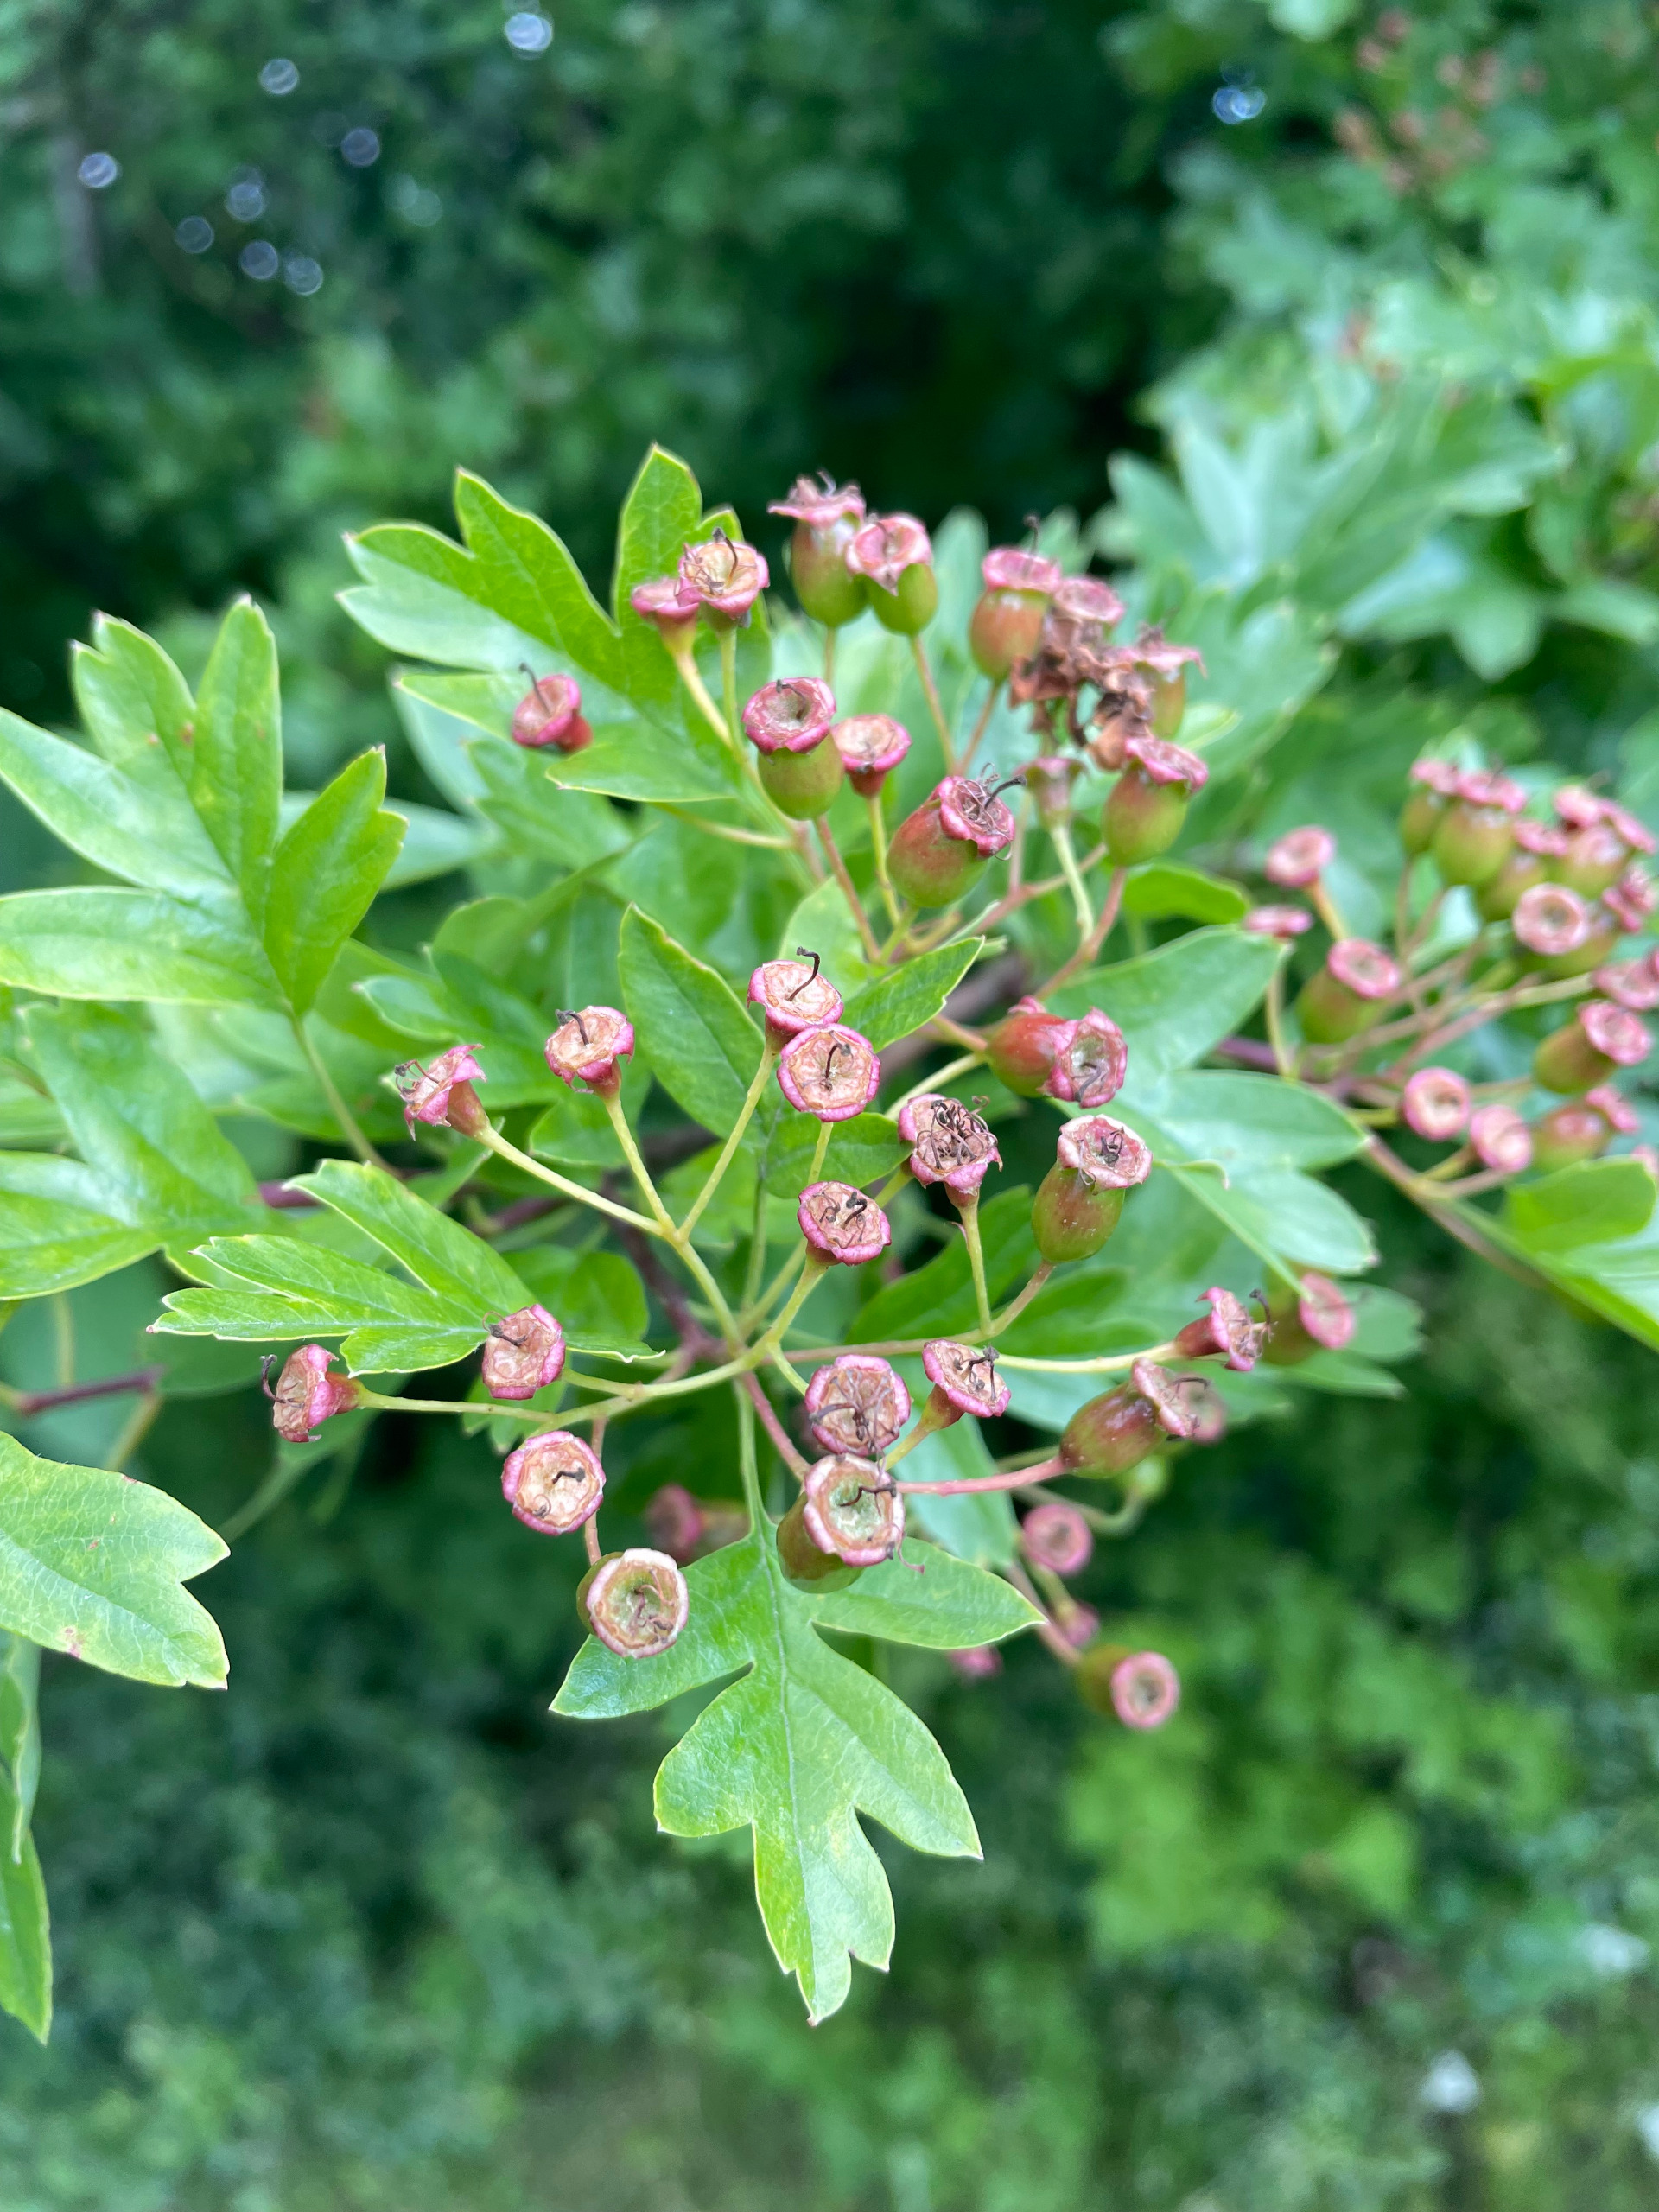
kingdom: Plantae
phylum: Tracheophyta
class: Magnoliopsida
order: Rosales
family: Rosaceae
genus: Crataegus
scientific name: Crataegus monogyna
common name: Engriflet hvidtjørn
